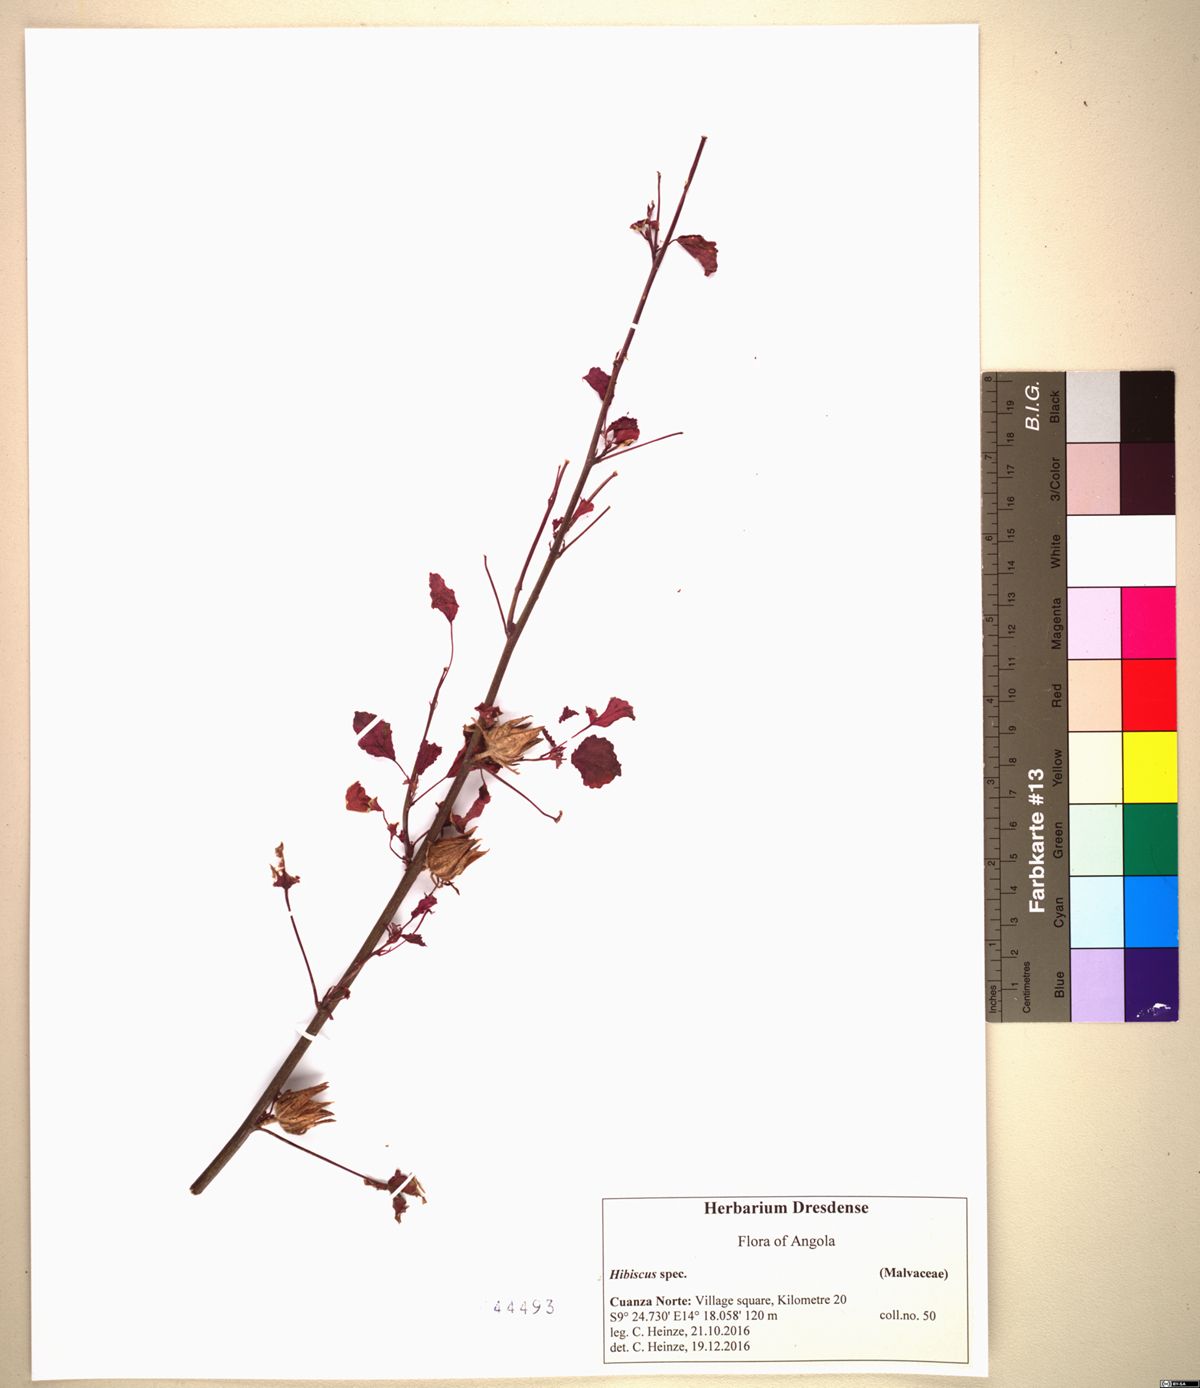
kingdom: Plantae
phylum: Tracheophyta
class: Magnoliopsida
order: Malvales
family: Malvaceae
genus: Hibiscus
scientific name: Hibiscus cannabinus
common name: Brown indianhemp
